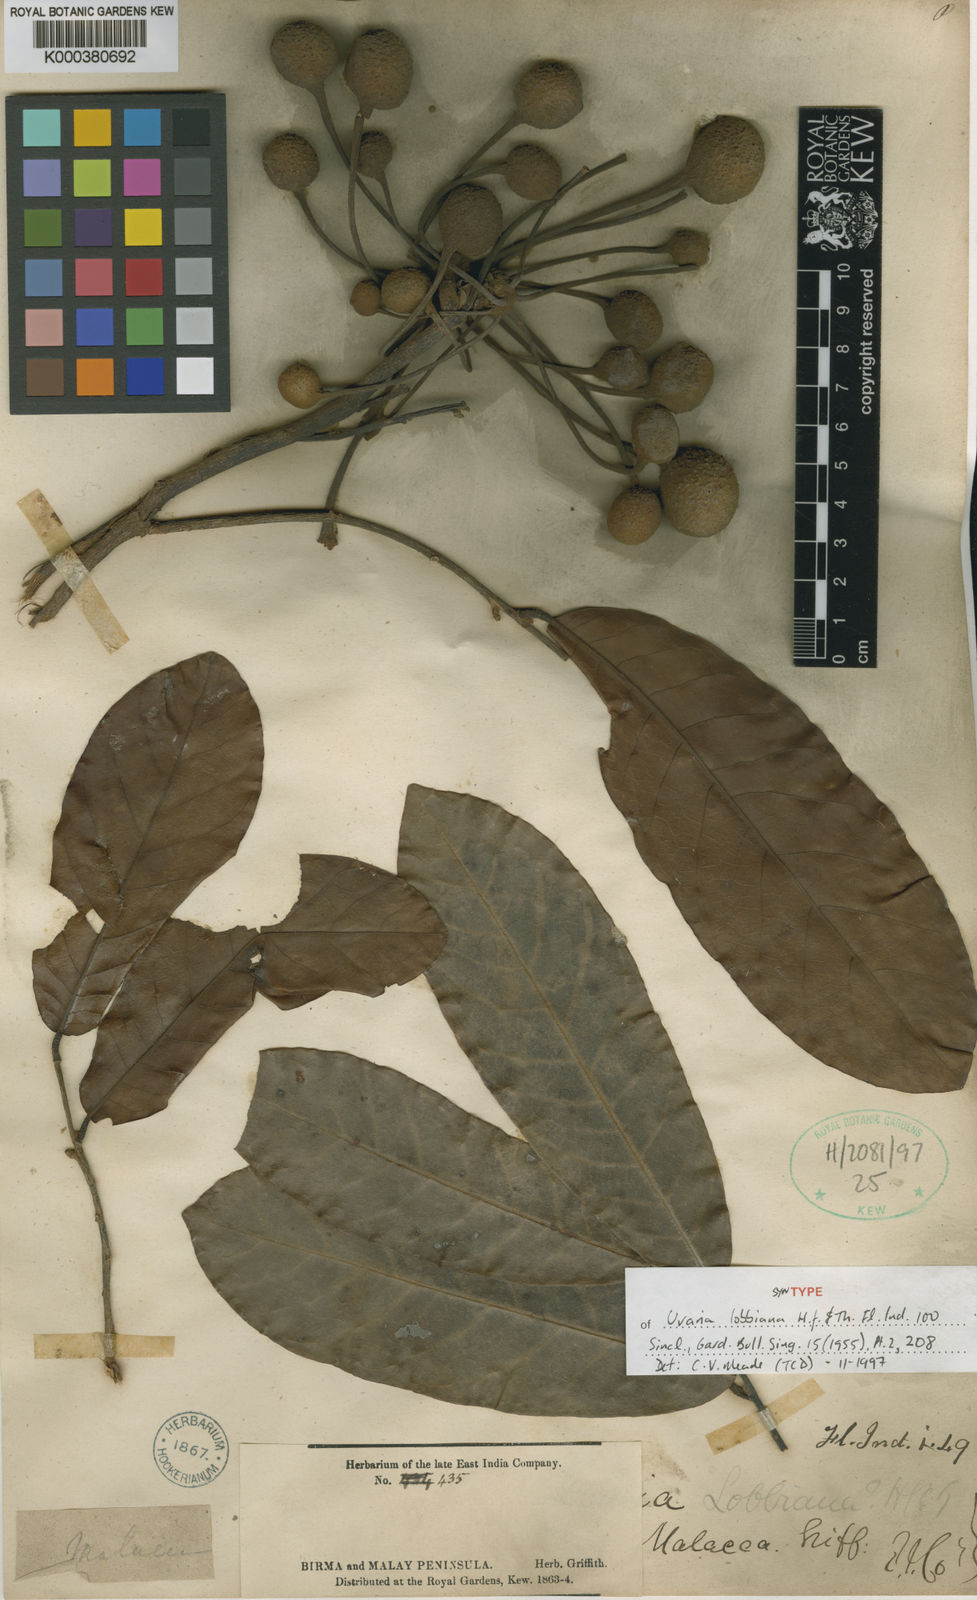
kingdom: Plantae
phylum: Tracheophyta
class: Magnoliopsida
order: Magnoliales
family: Annonaceae
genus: Uvaria
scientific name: Uvaria lobbiana
